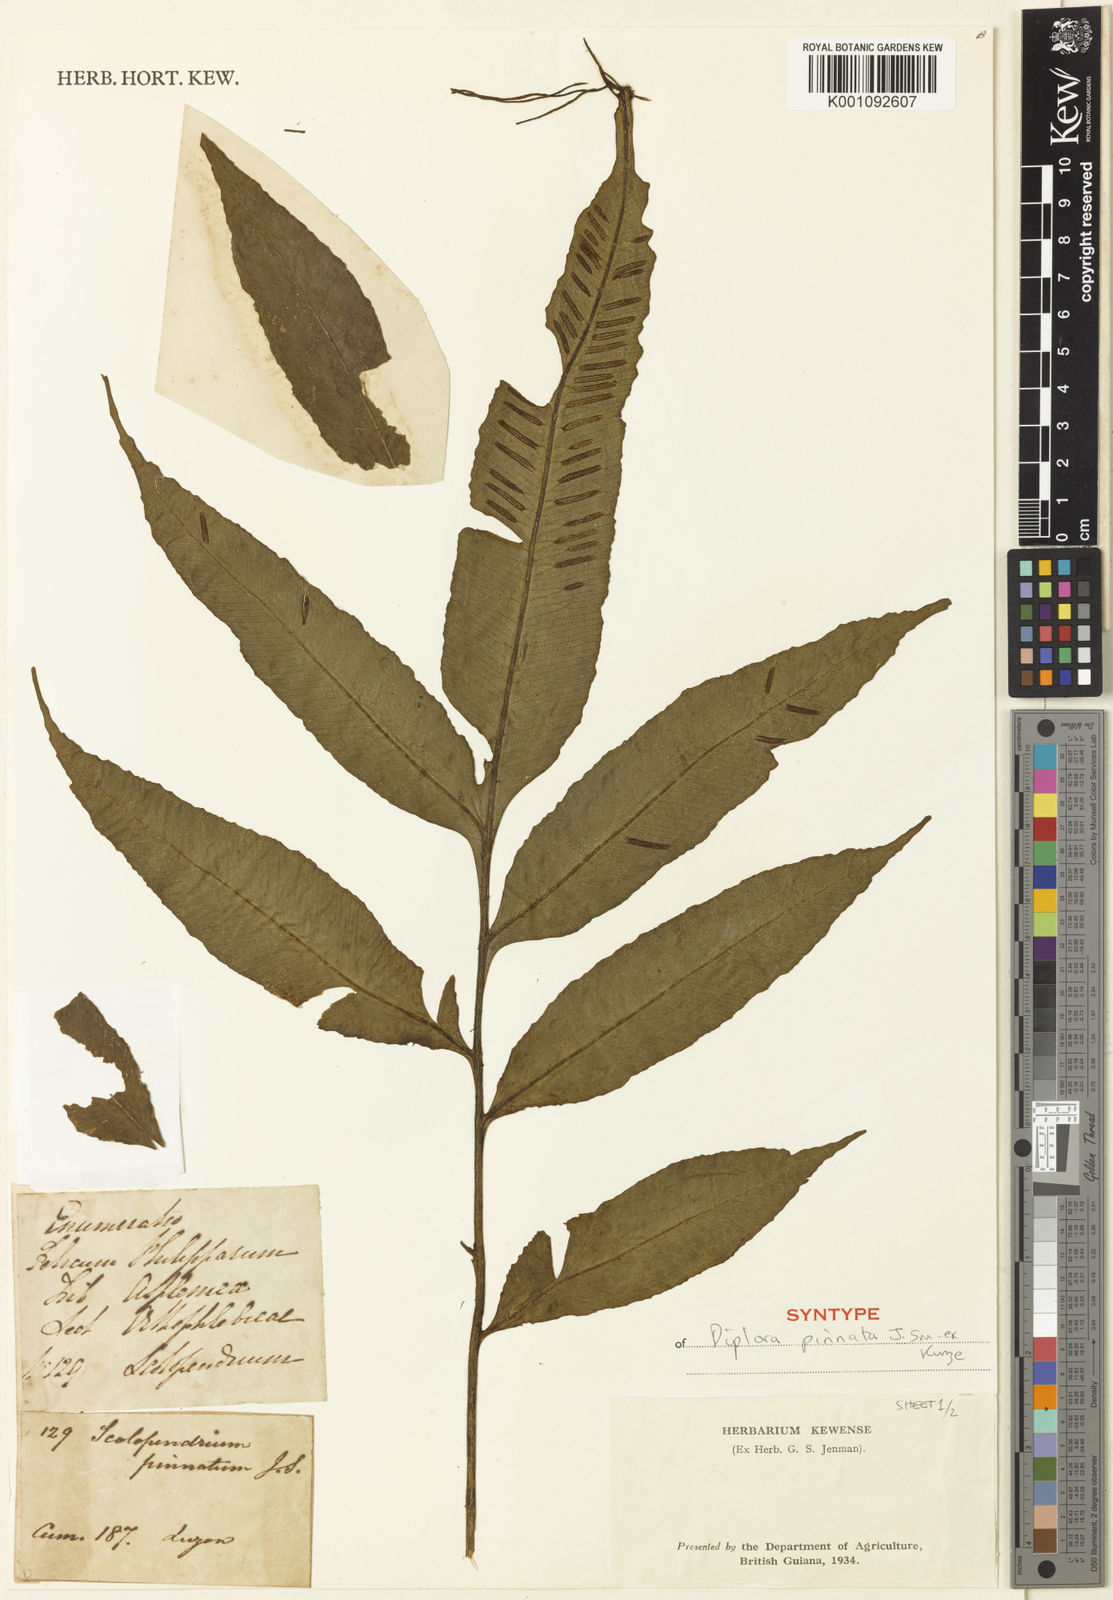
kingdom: Plantae
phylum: Tracheophyta
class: Polypodiopsida
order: Polypodiales
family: Aspleniaceae
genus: Asplenium
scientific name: Asplenium
